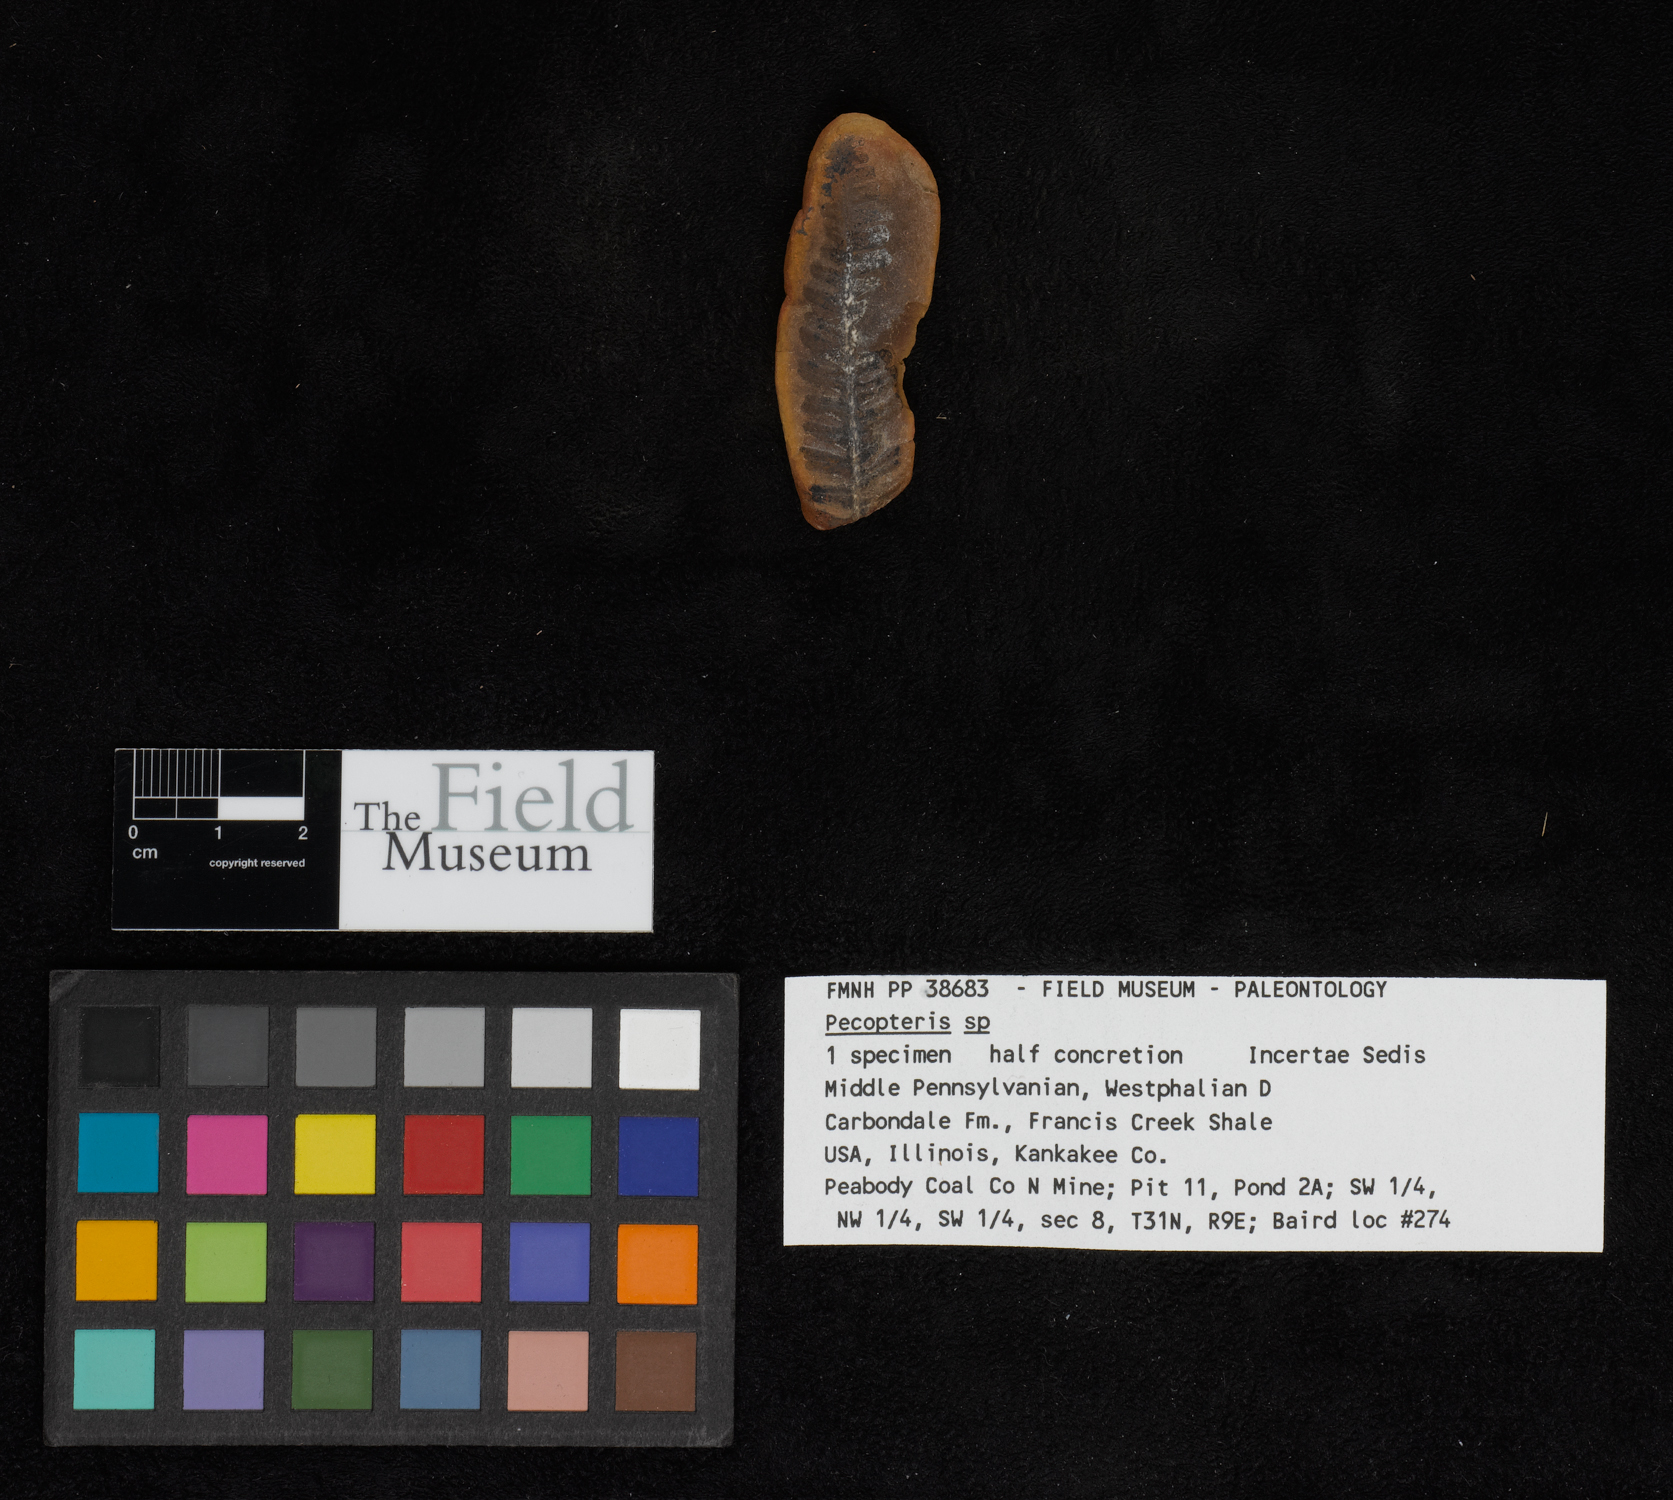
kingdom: Plantae
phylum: Tracheophyta
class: Polypodiopsida
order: Marattiales
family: Asterothecaceae
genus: Pecopteris
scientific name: Pecopteris
